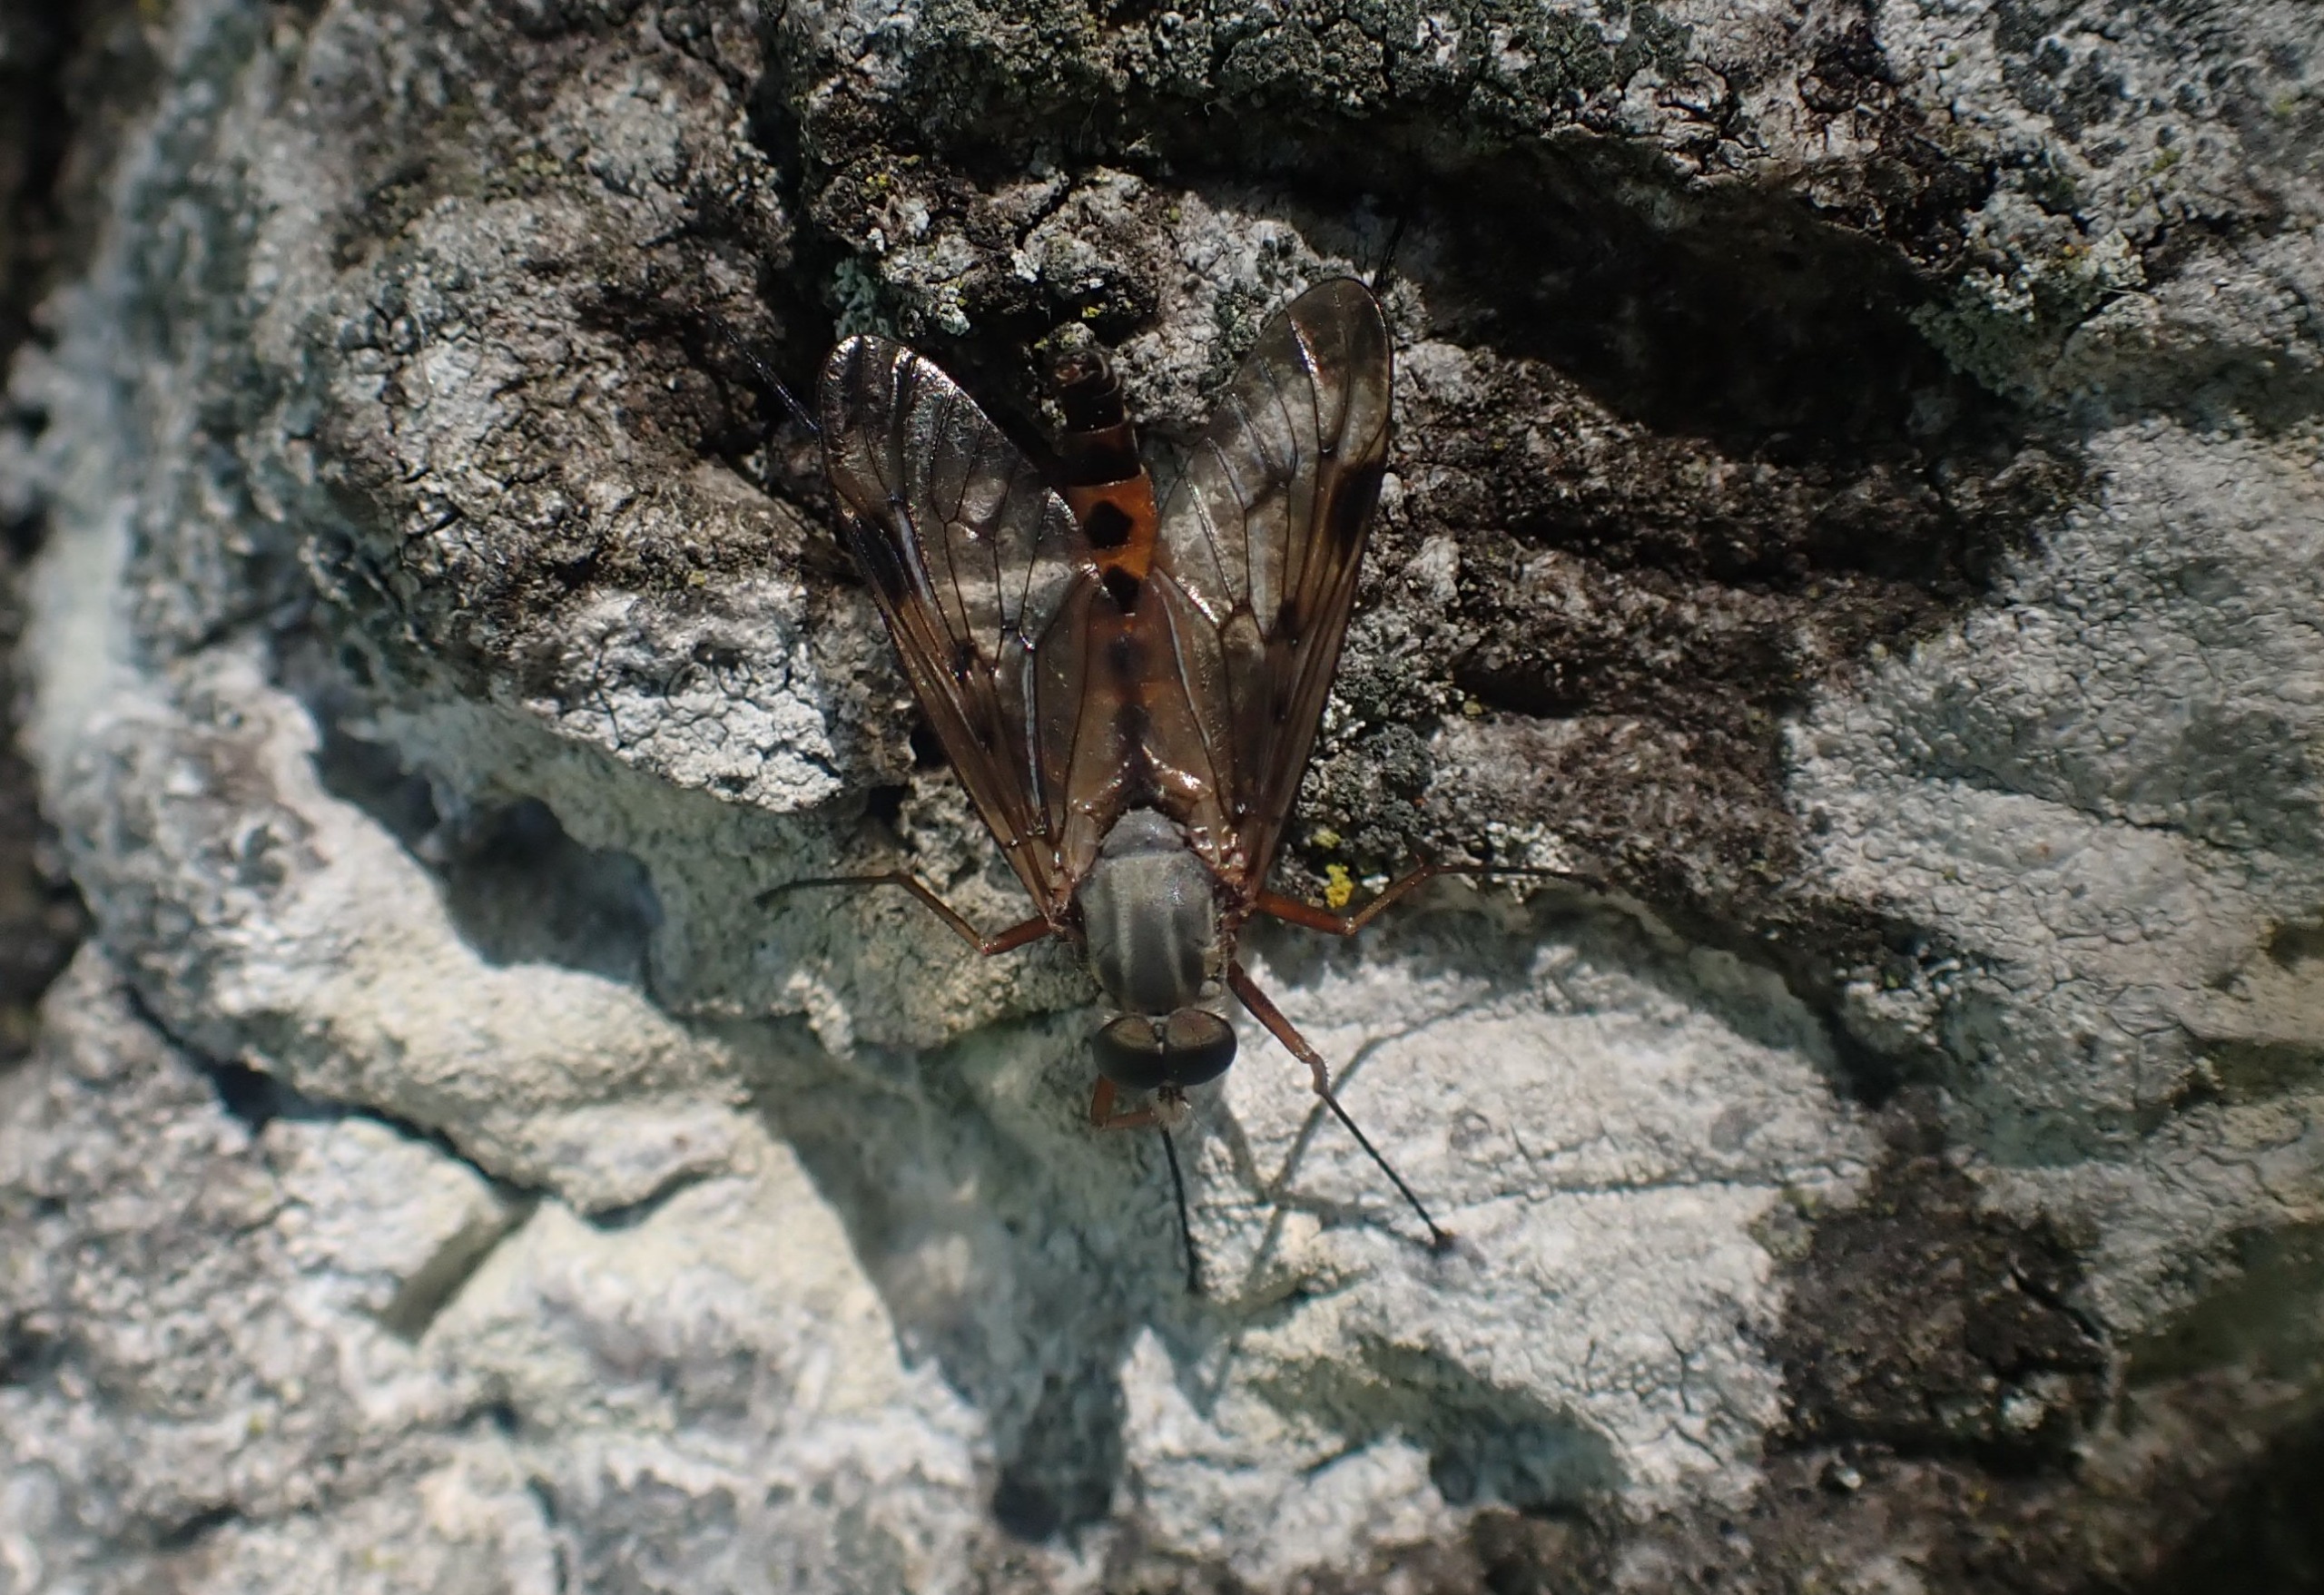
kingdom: Animalia
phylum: Arthropoda
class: Insecta
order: Diptera
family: Rhagionidae
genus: Rhagio
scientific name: Rhagio scolopacea
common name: Almindelig sneppeflue
